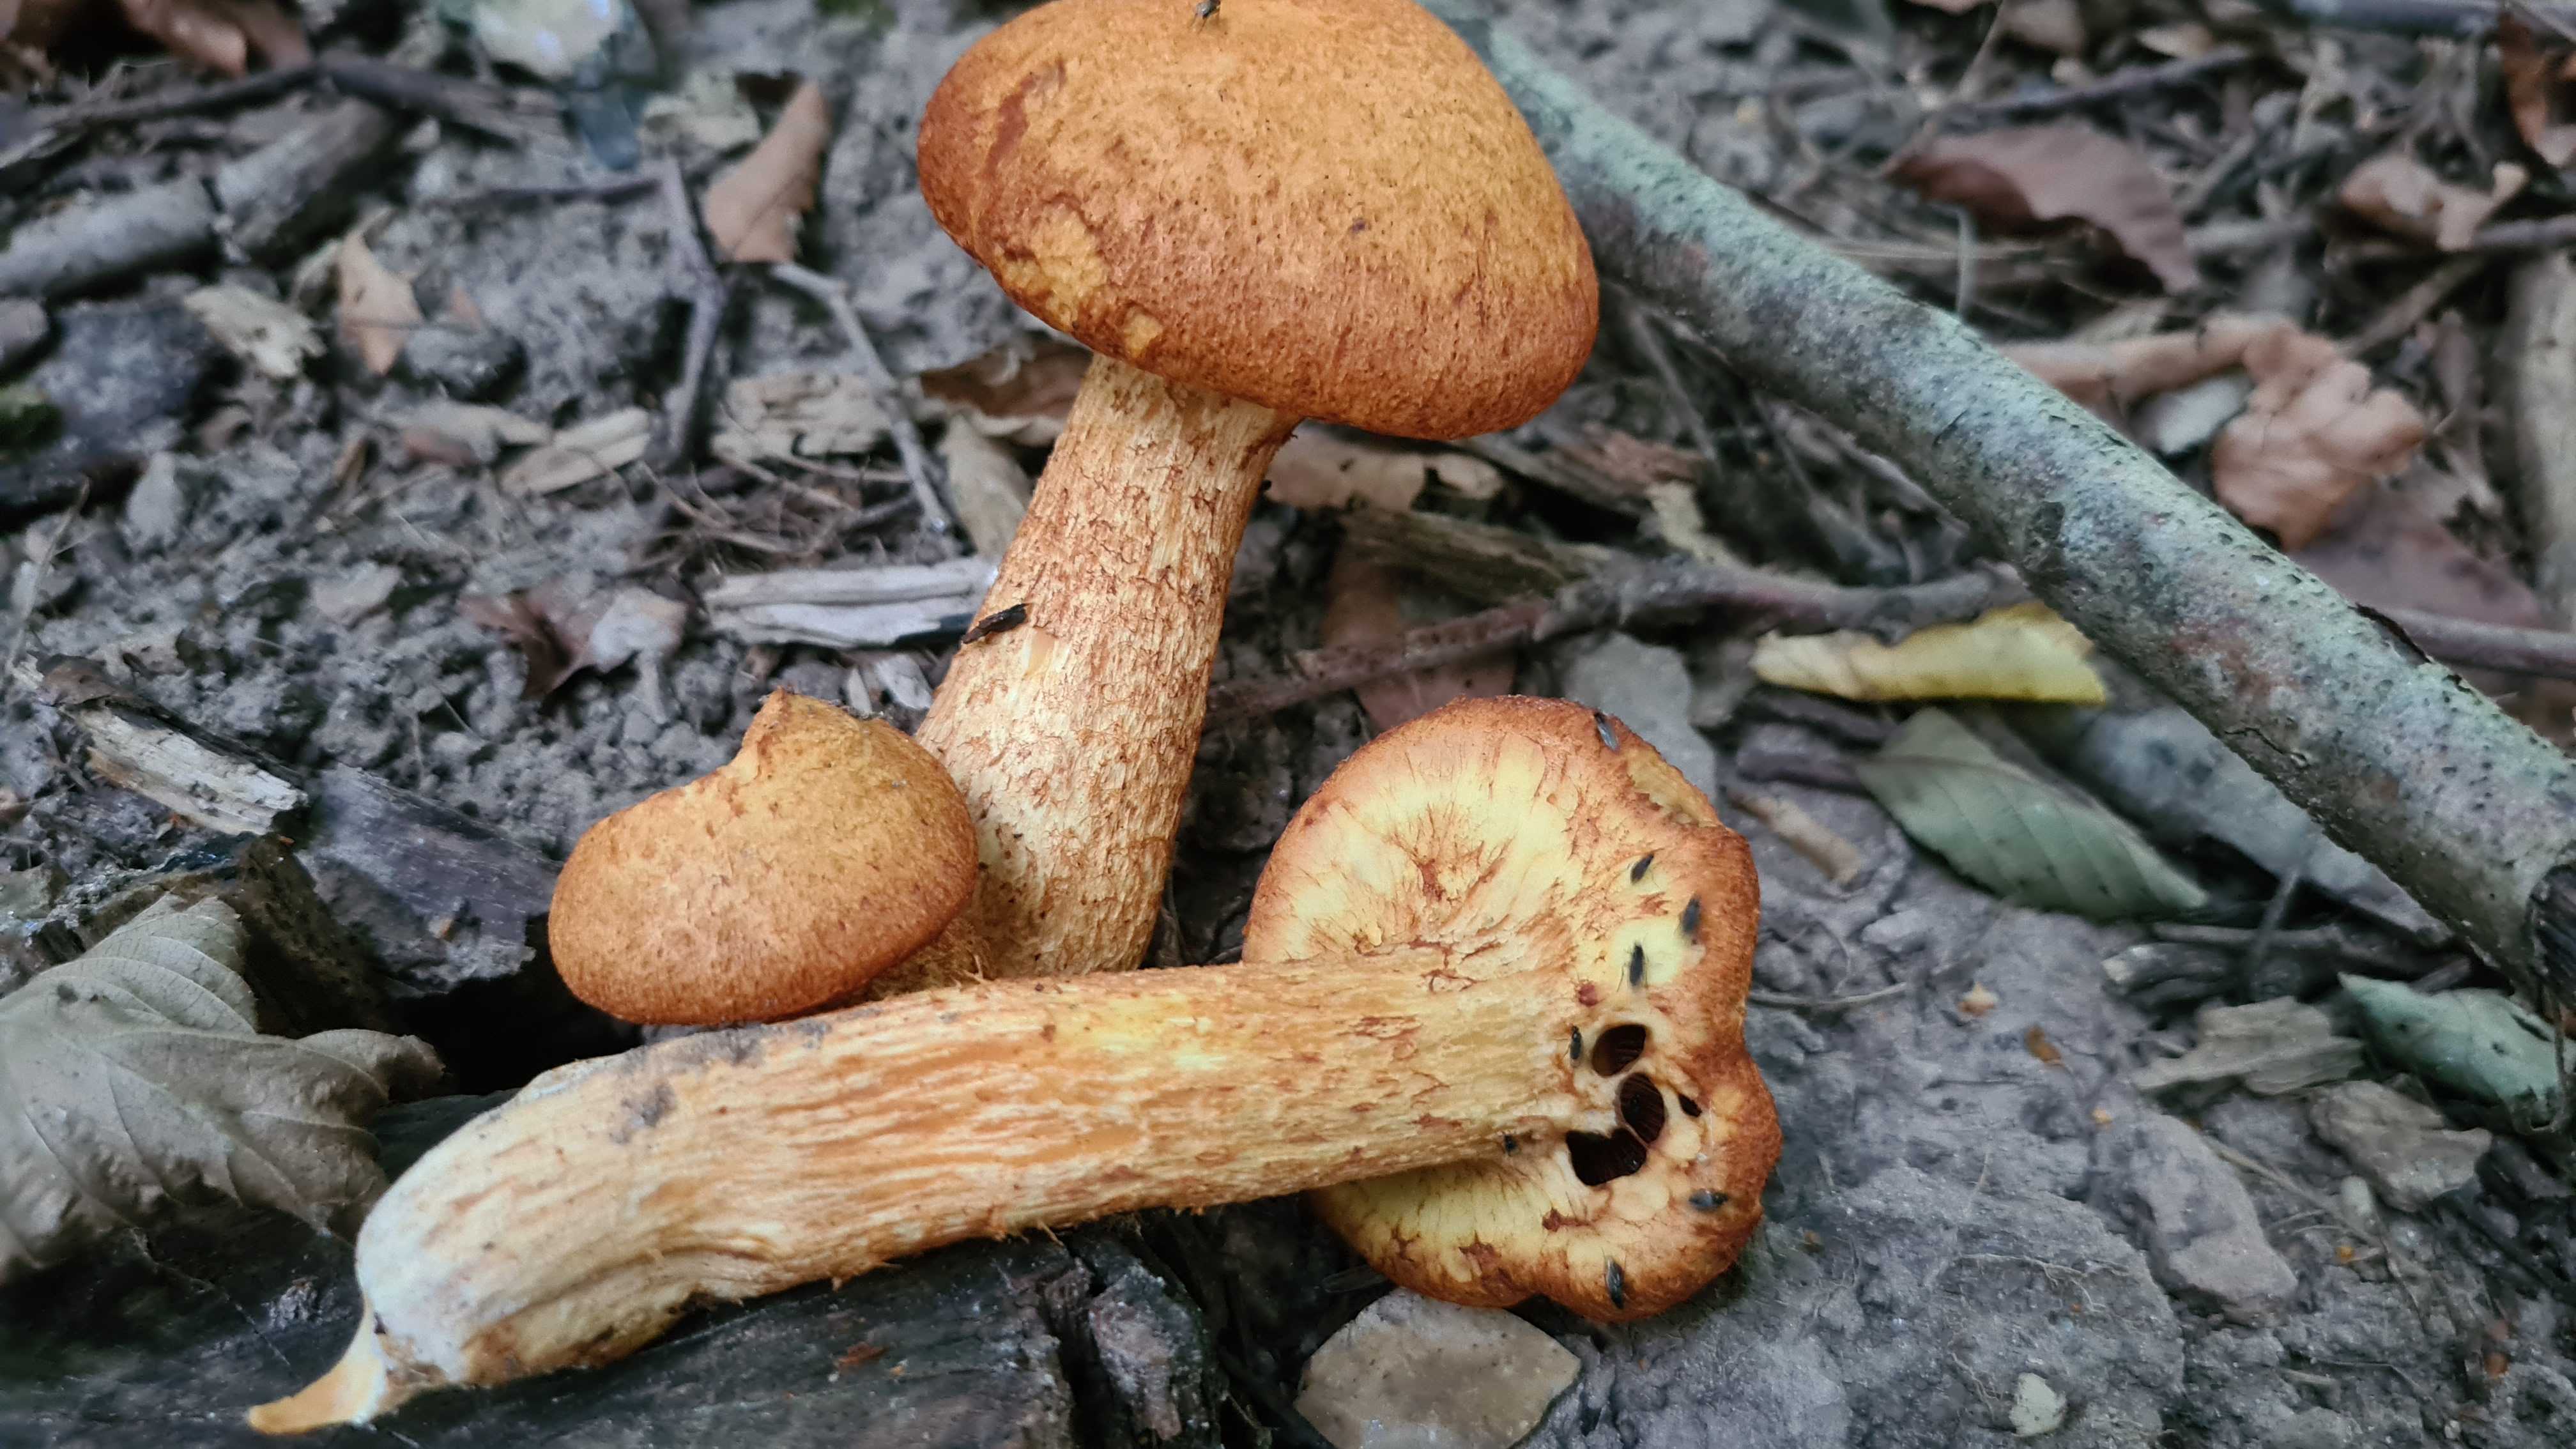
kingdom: Fungi
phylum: Basidiomycota
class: Agaricomycetes
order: Agaricales
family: Hymenogastraceae
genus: Gymnopilus
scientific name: Gymnopilus spectabilis
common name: fibret flammehat
